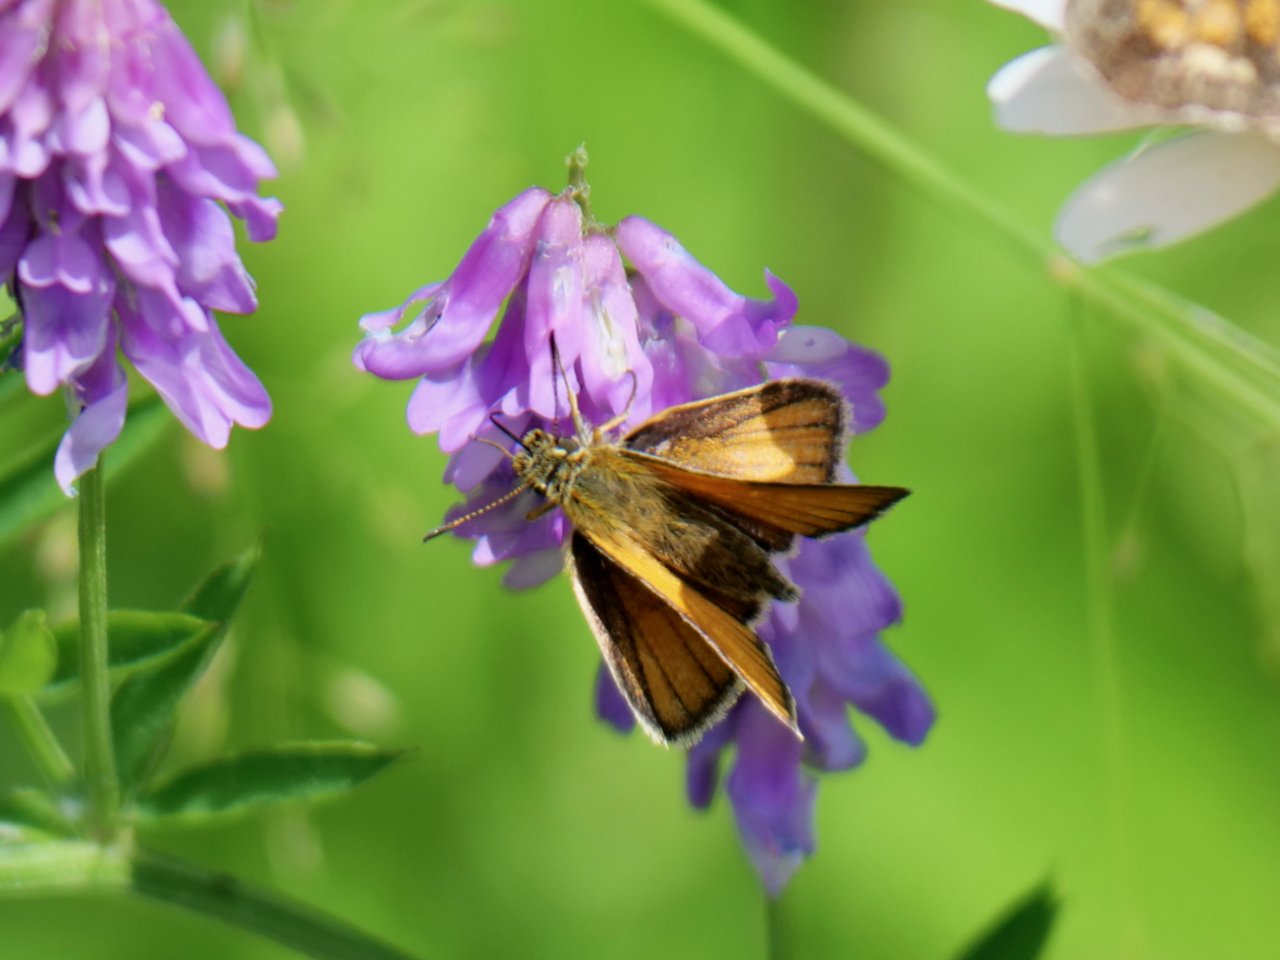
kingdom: Animalia
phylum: Arthropoda
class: Insecta
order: Lepidoptera
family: Hesperiidae
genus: Thymelicus
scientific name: Thymelicus lineola
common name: European Skipper
